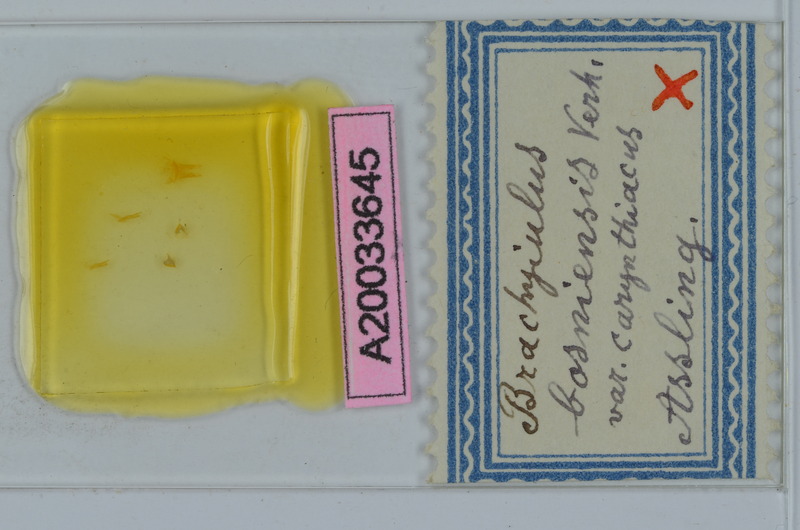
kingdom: Animalia
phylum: Arthropoda
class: Diplopoda
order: Julida
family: Julidae
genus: Megaphyllum
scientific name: Megaphyllum bosniense
